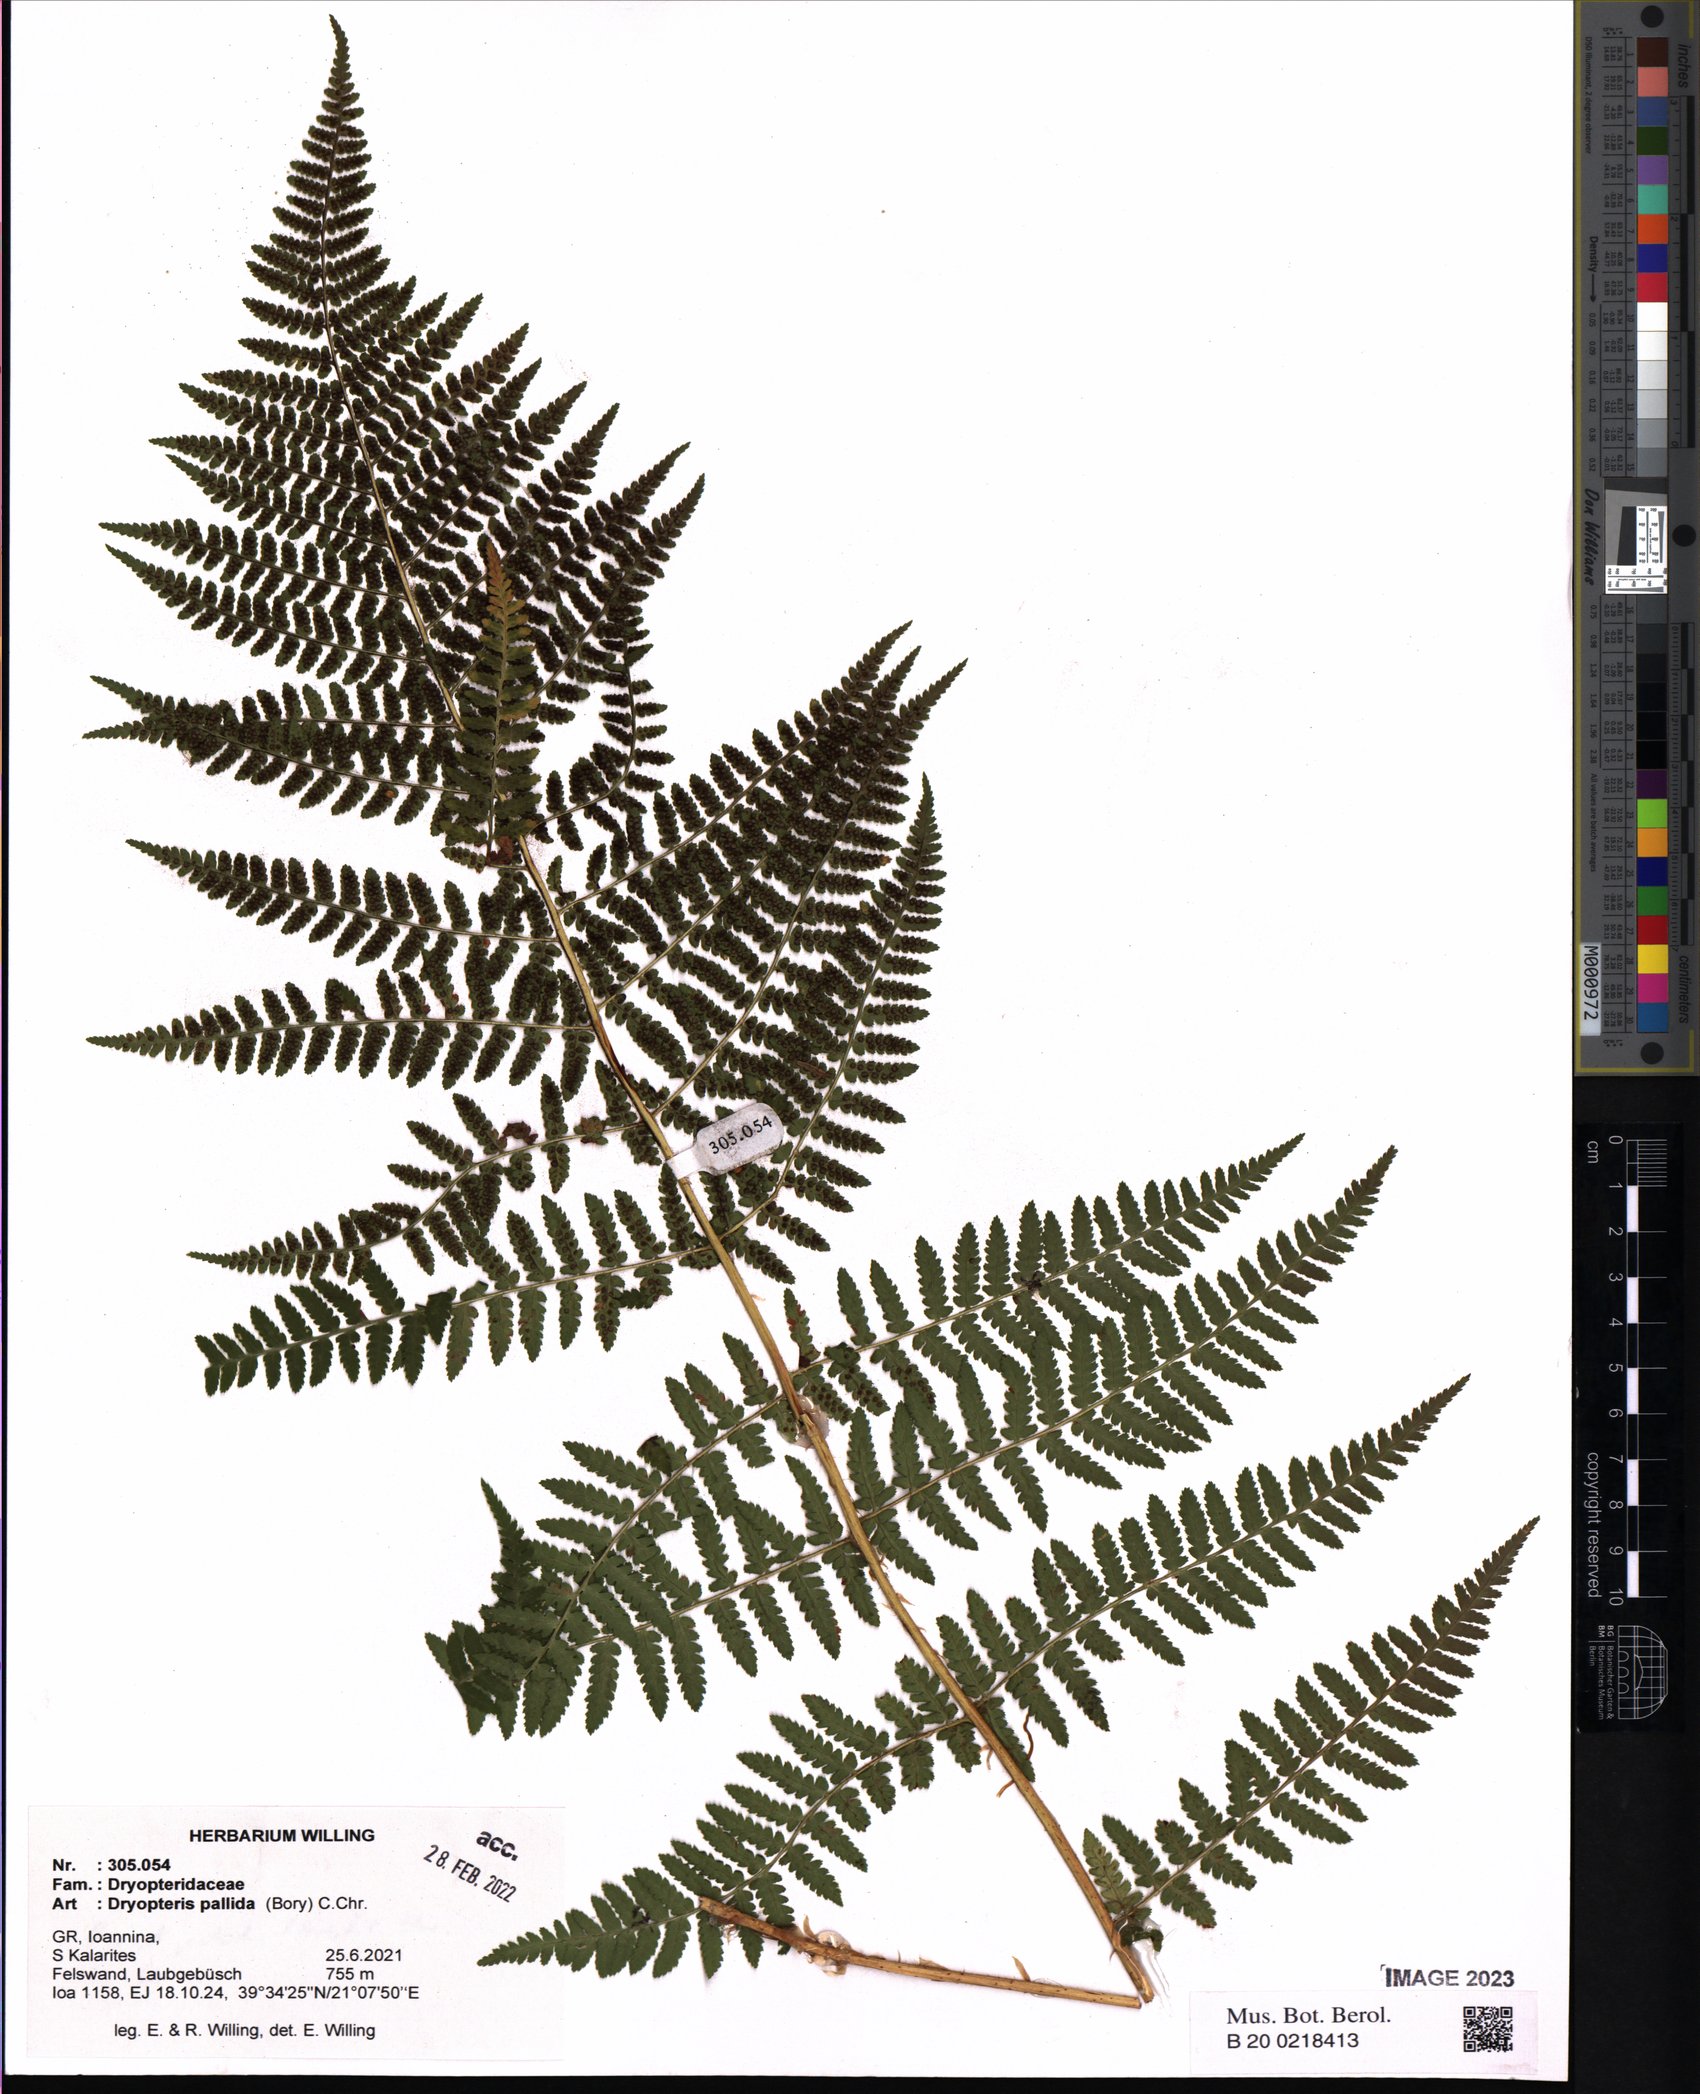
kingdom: Plantae
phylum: Tracheophyta
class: Polypodiopsida
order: Polypodiales
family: Dryopteridaceae
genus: Dryopteris
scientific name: Dryopteris pallida
